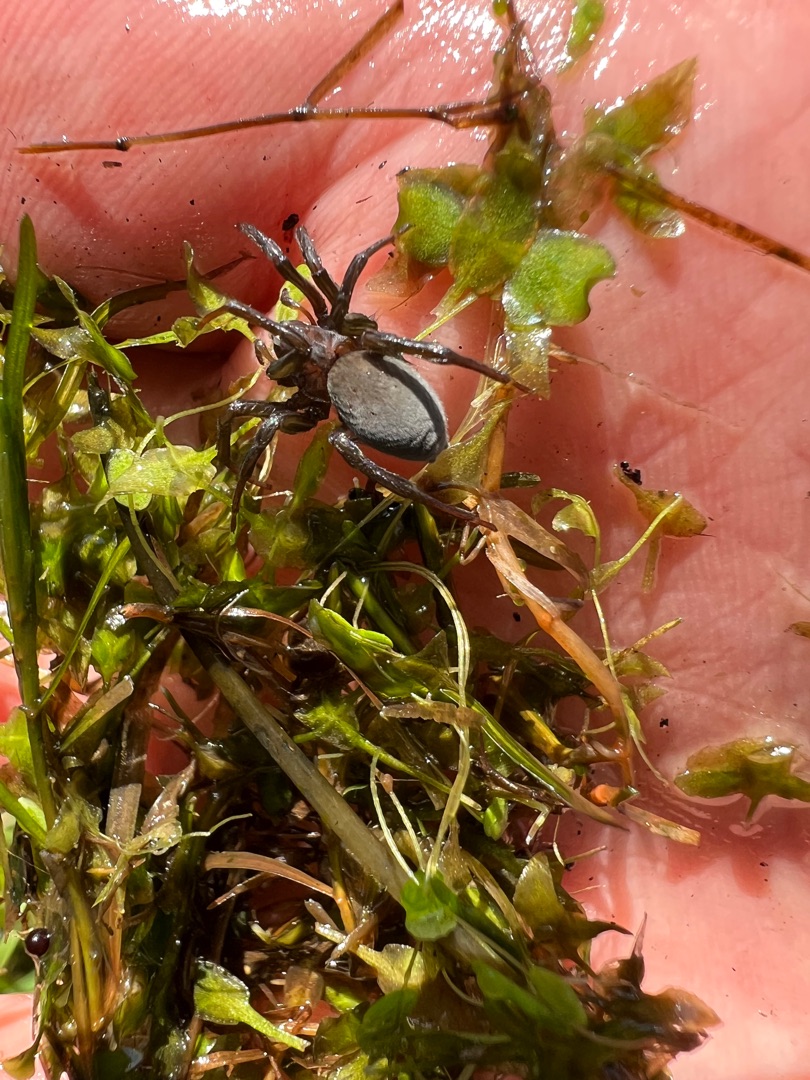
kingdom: Animalia
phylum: Arthropoda
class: Arachnida
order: Araneae
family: Dictynidae
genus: Argyroneta
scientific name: Argyroneta aquatica
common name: Vandedderkop
